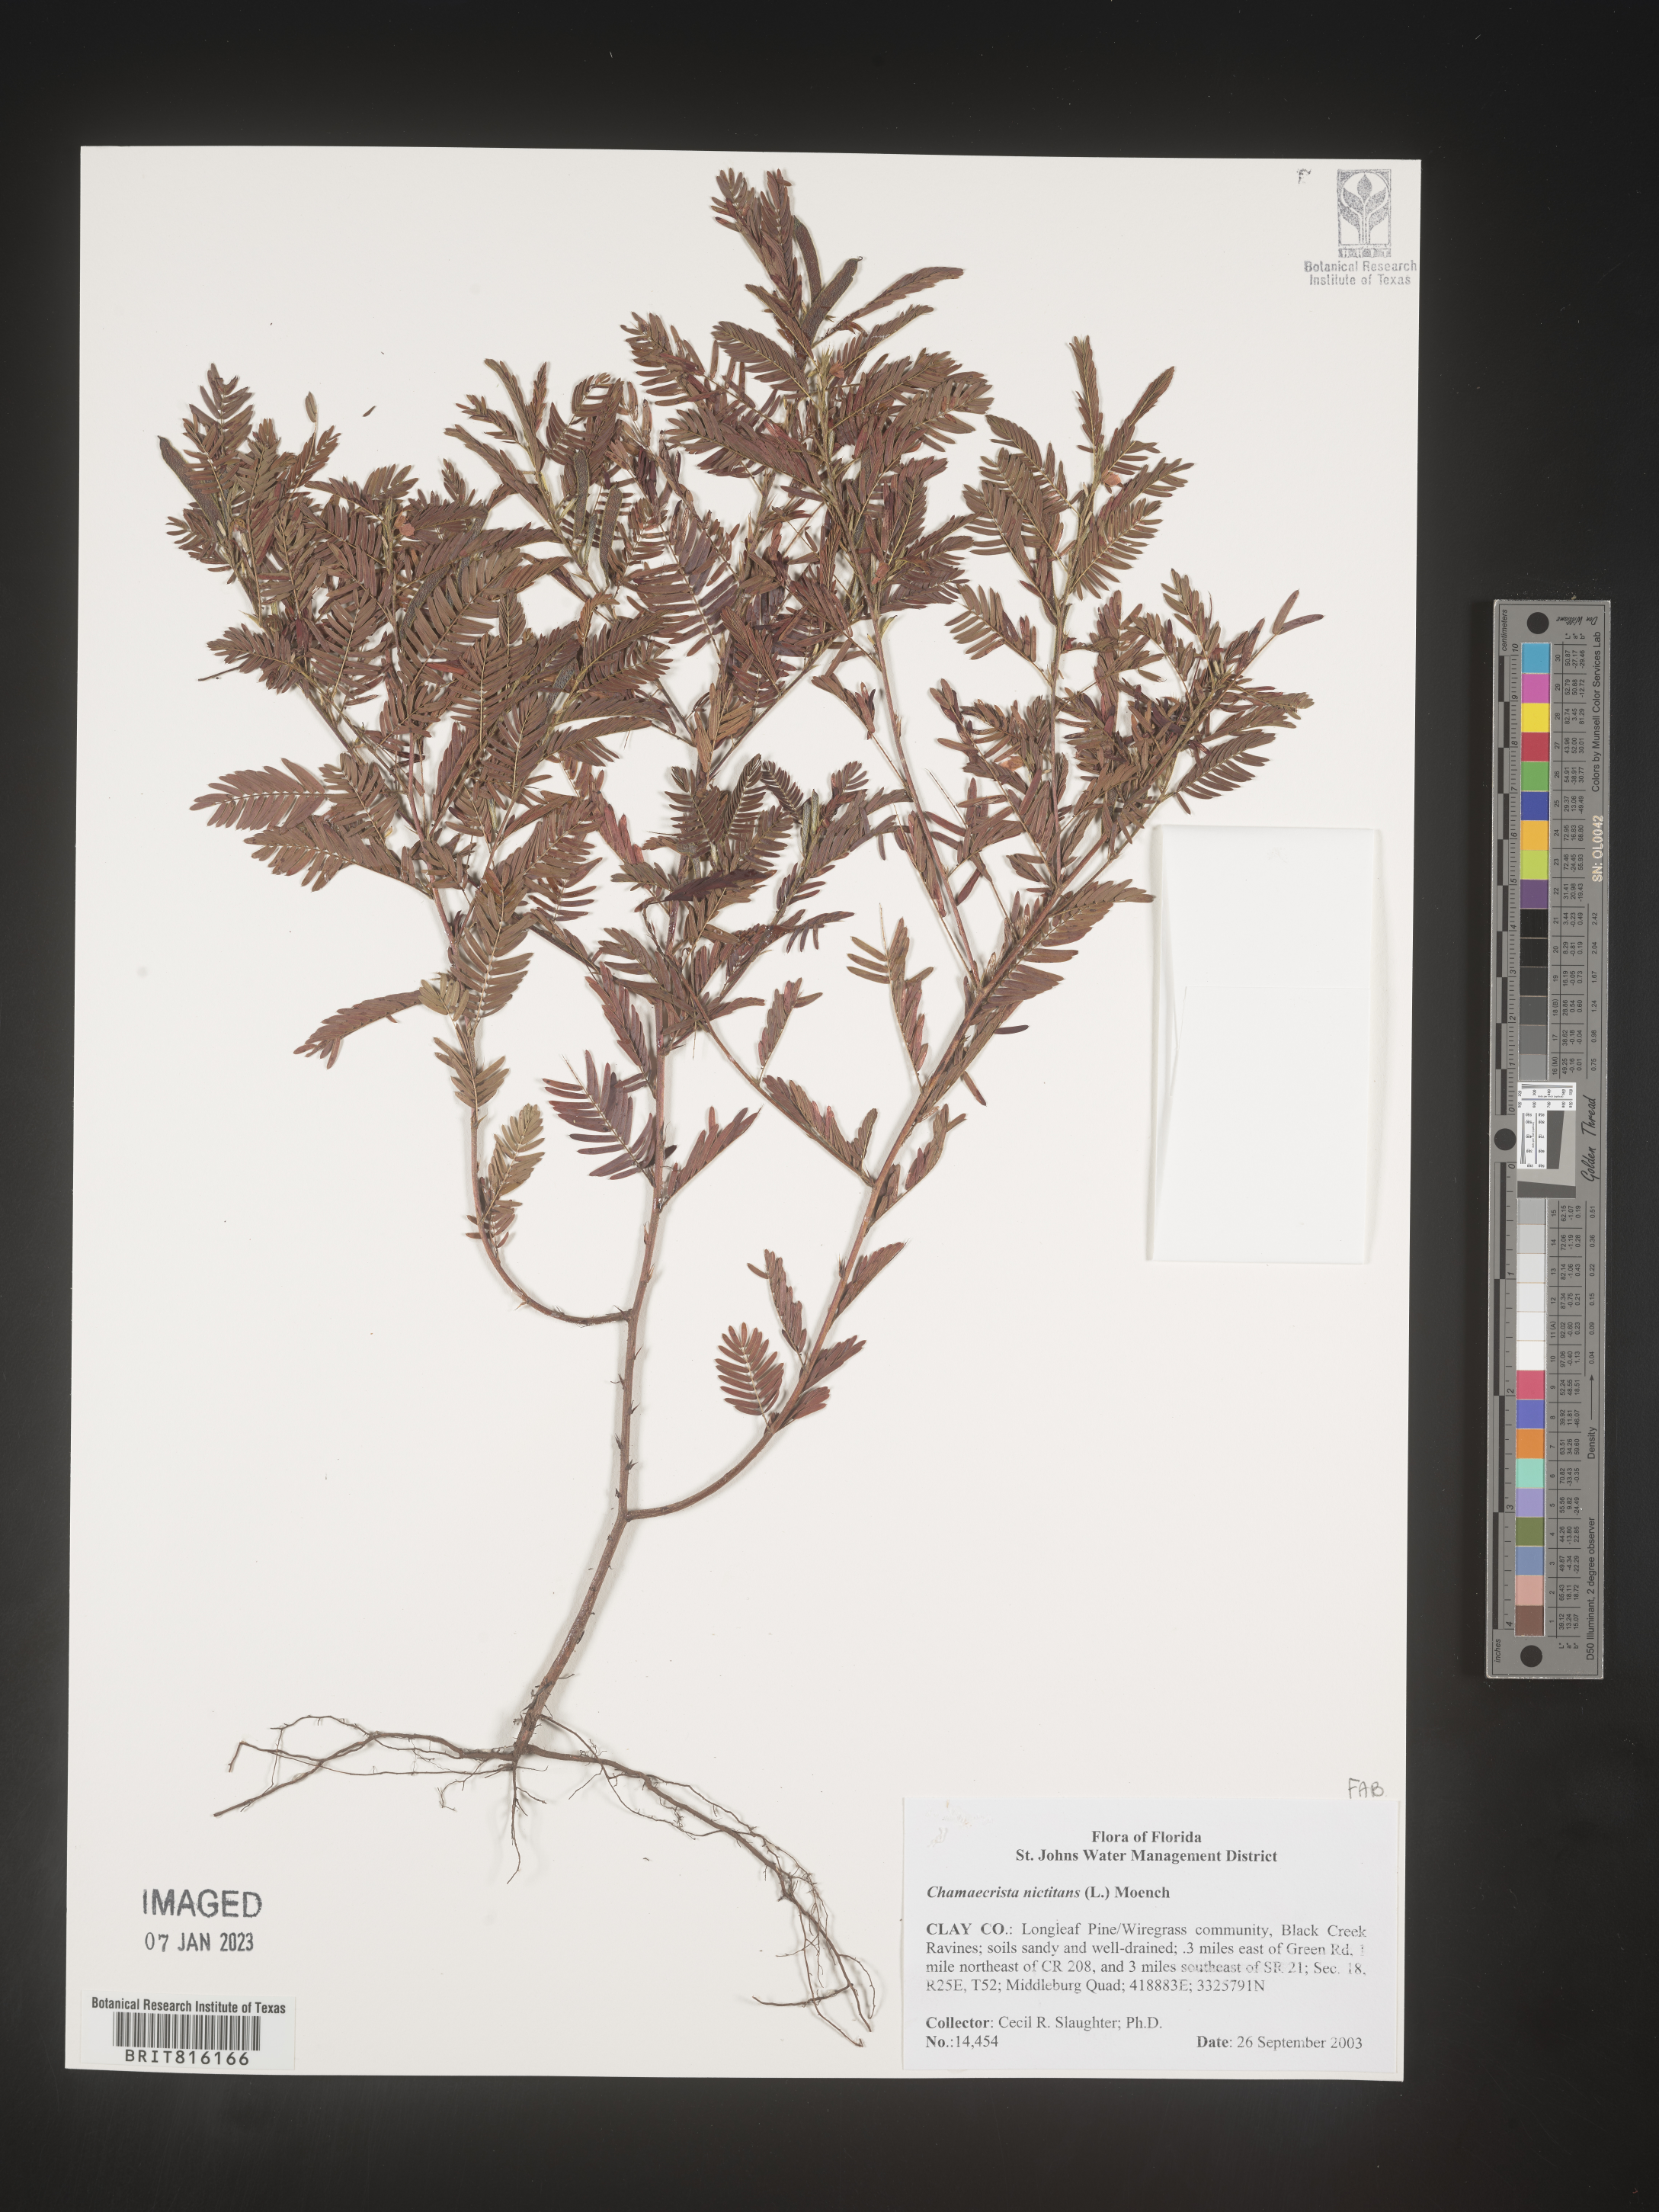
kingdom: Plantae
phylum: Tracheophyta
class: Magnoliopsida
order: Fabales
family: Fabaceae
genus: Chamaecrista
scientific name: Chamaecrista
